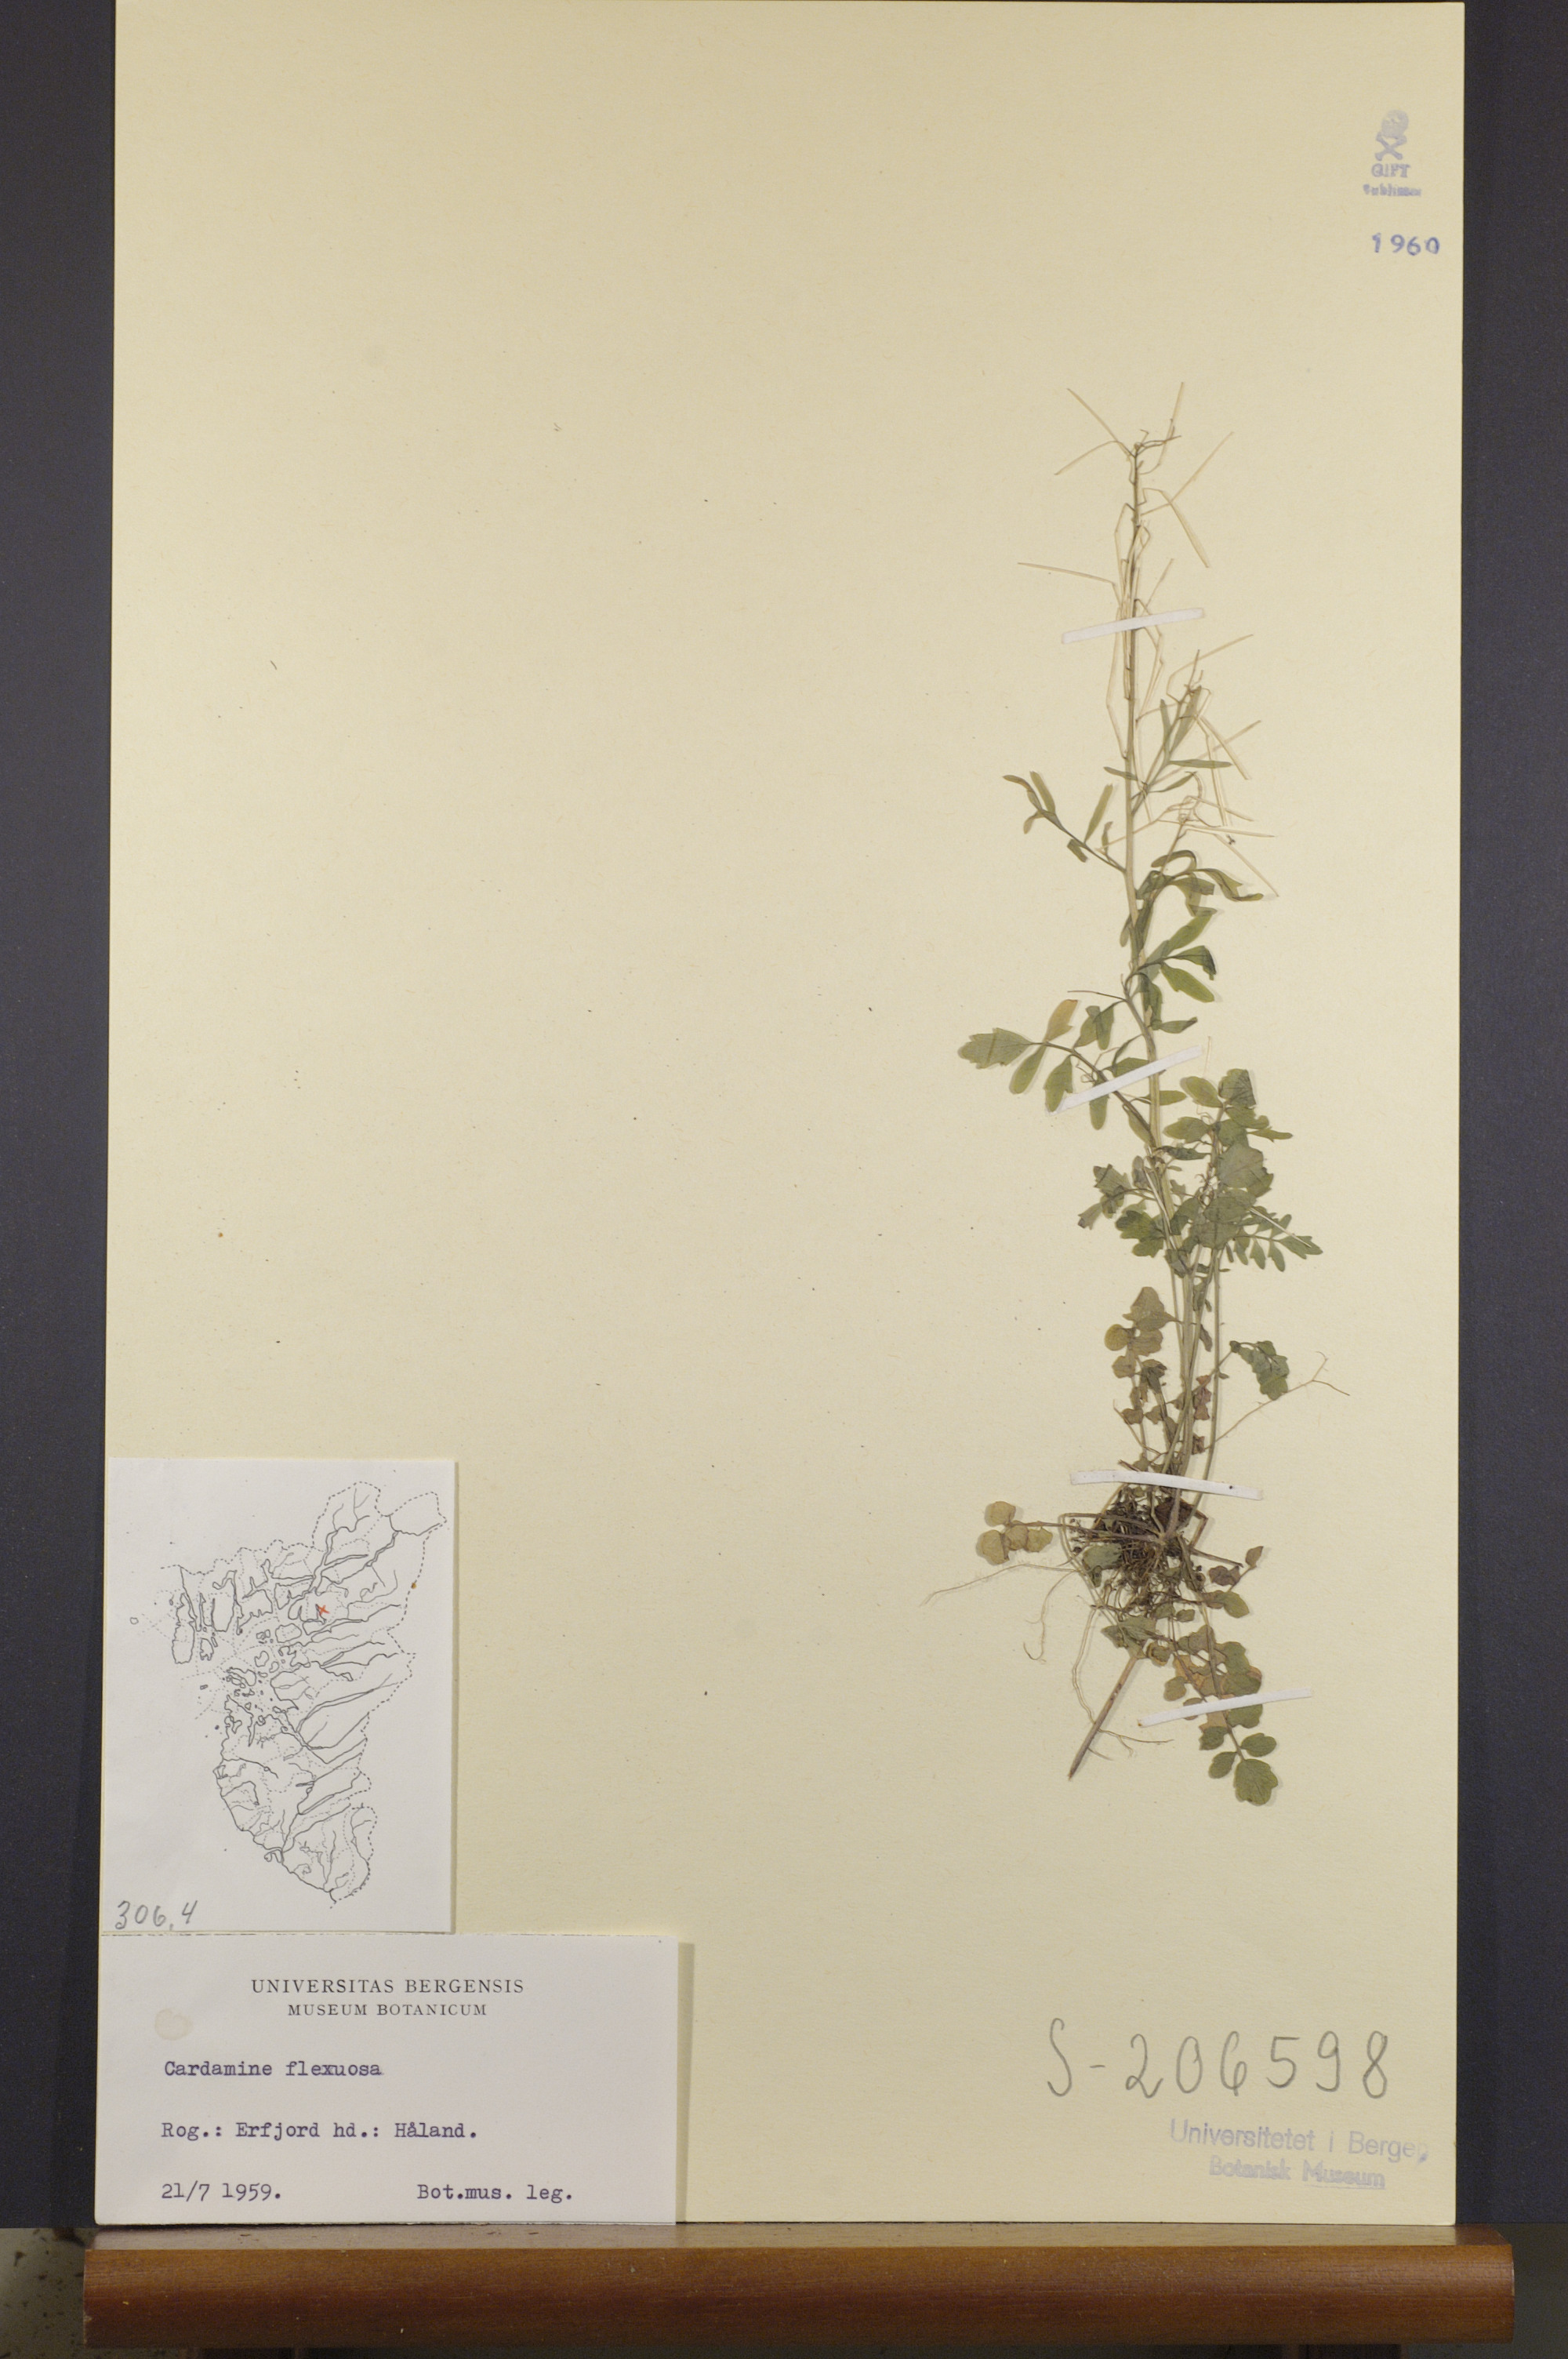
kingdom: Plantae
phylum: Tracheophyta
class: Magnoliopsida
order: Brassicales
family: Brassicaceae
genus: Cardamine
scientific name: Cardamine flexuosa
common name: Woodland bittercress
